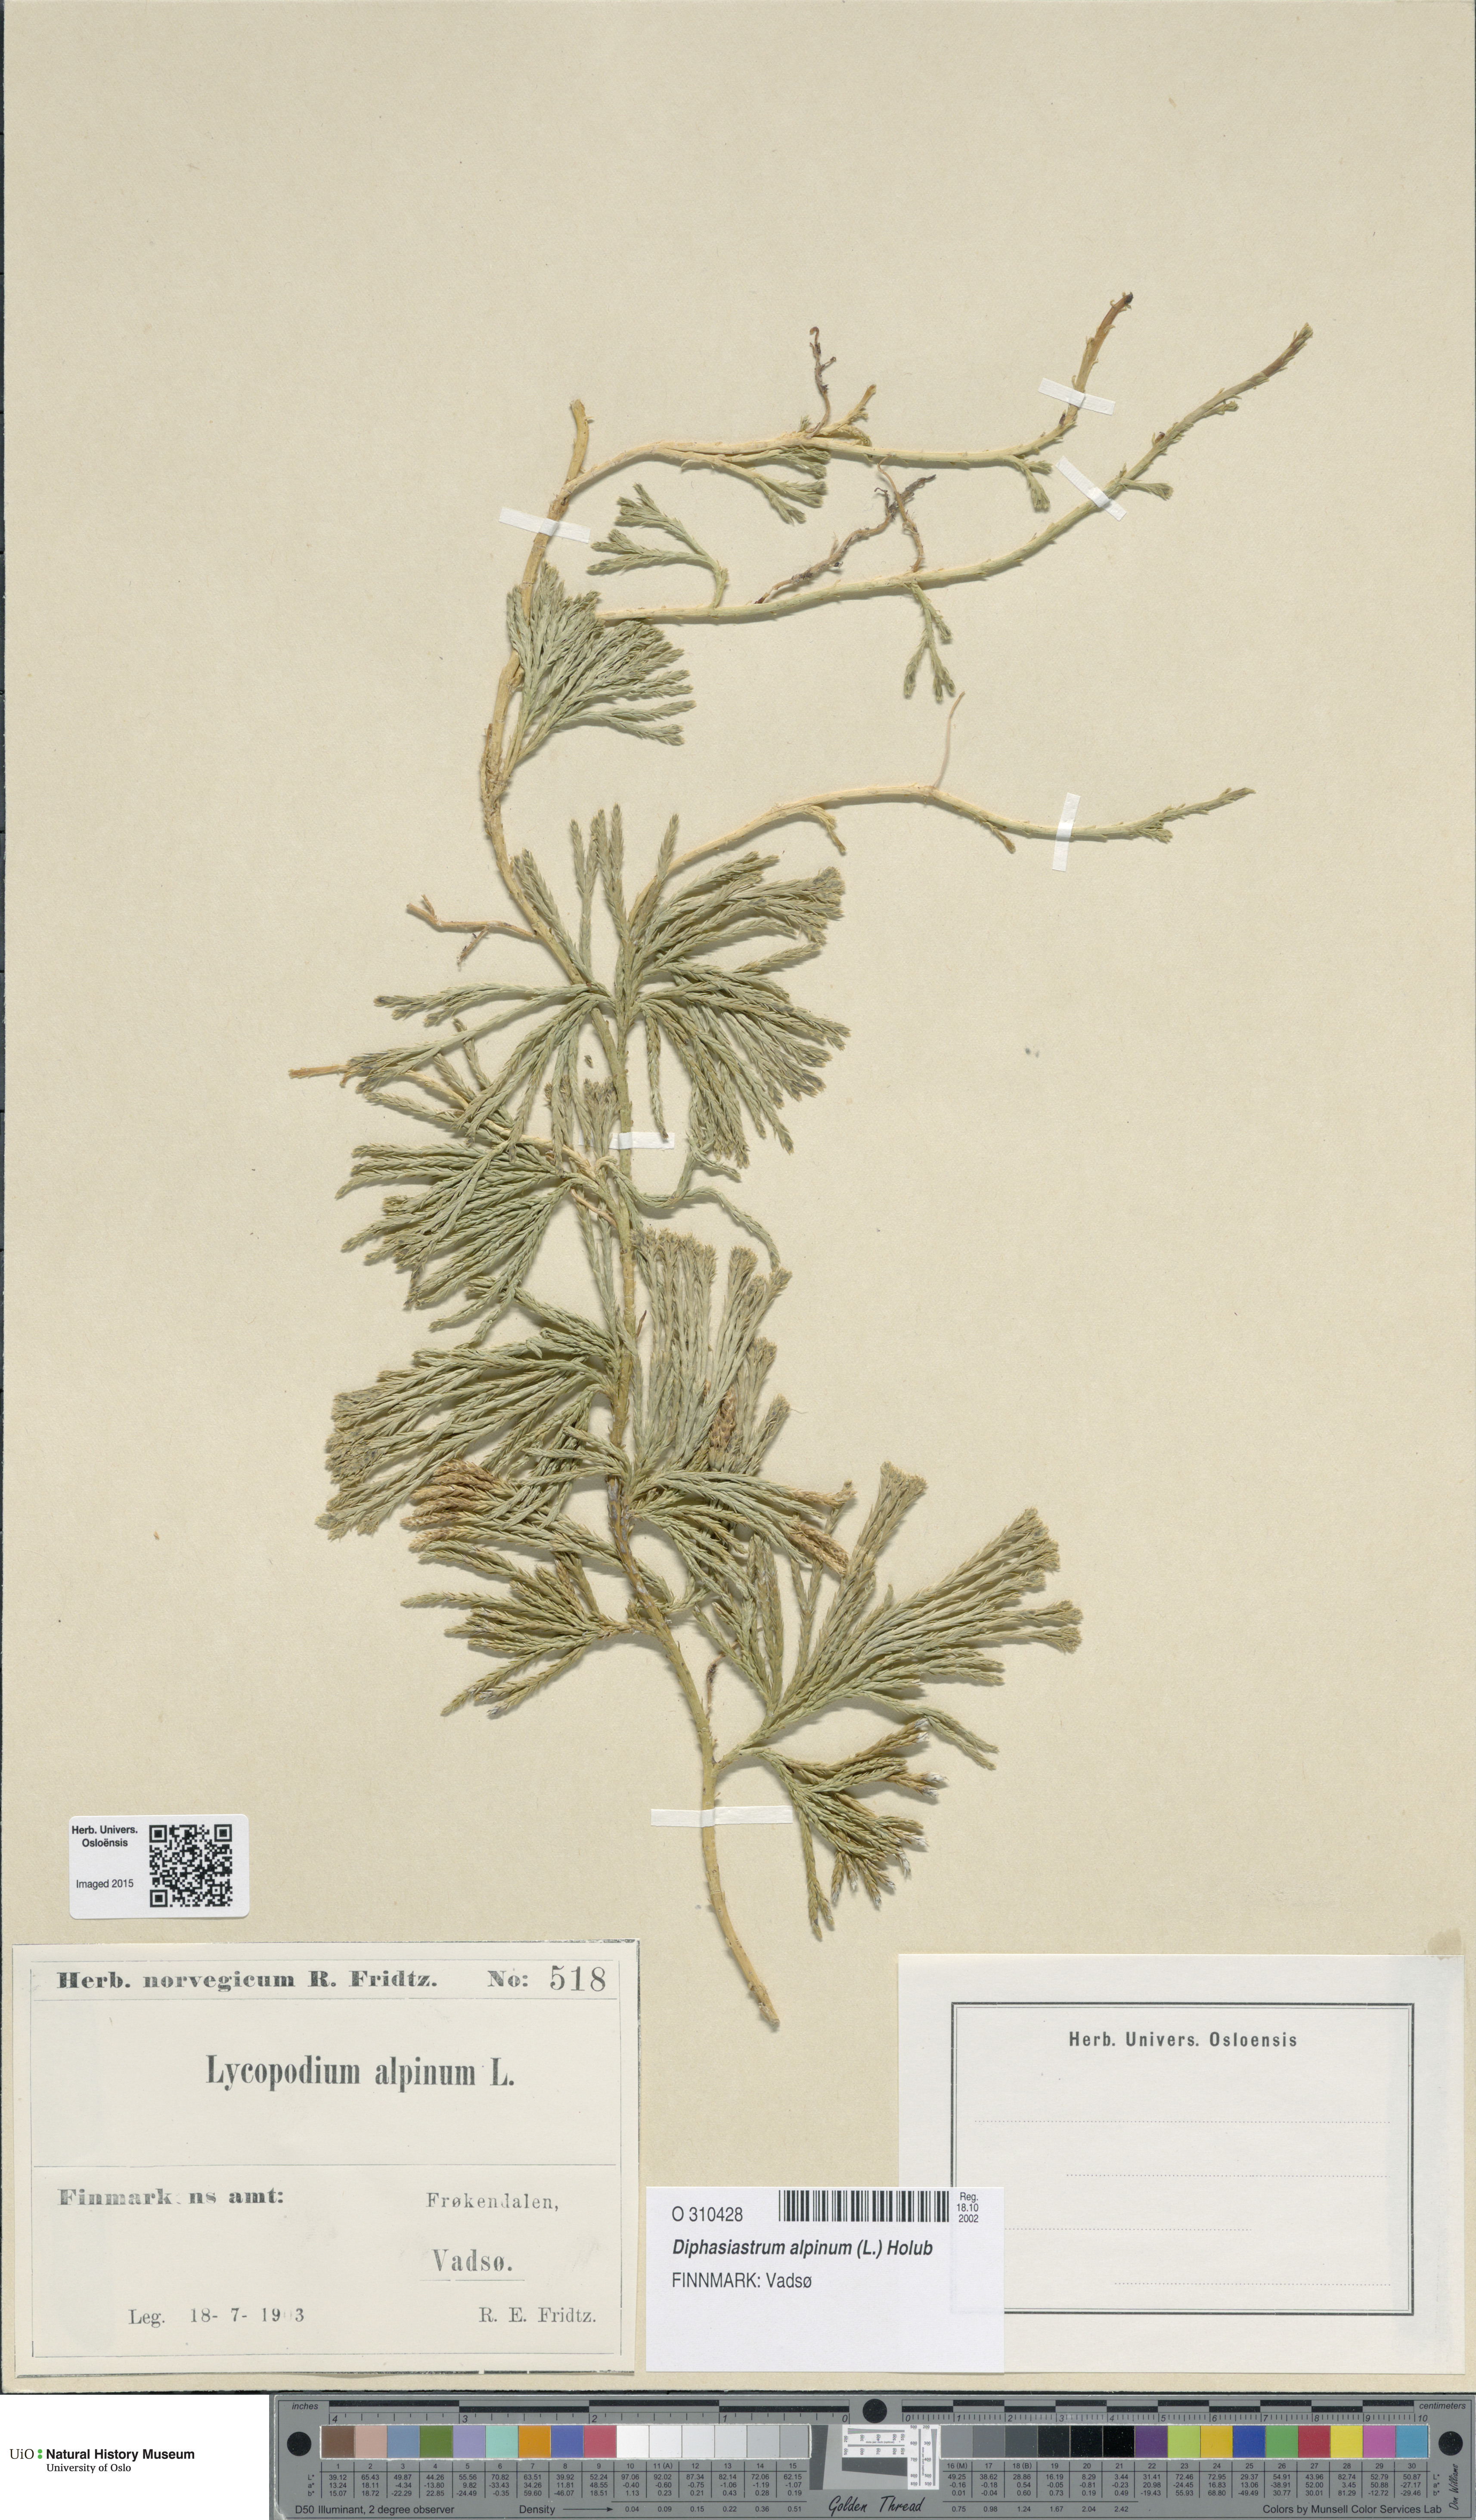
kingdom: Plantae
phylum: Tracheophyta
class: Lycopodiopsida
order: Lycopodiales
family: Lycopodiaceae
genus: Diphasiastrum
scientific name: Diphasiastrum alpinum
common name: Alpine clubmoss
